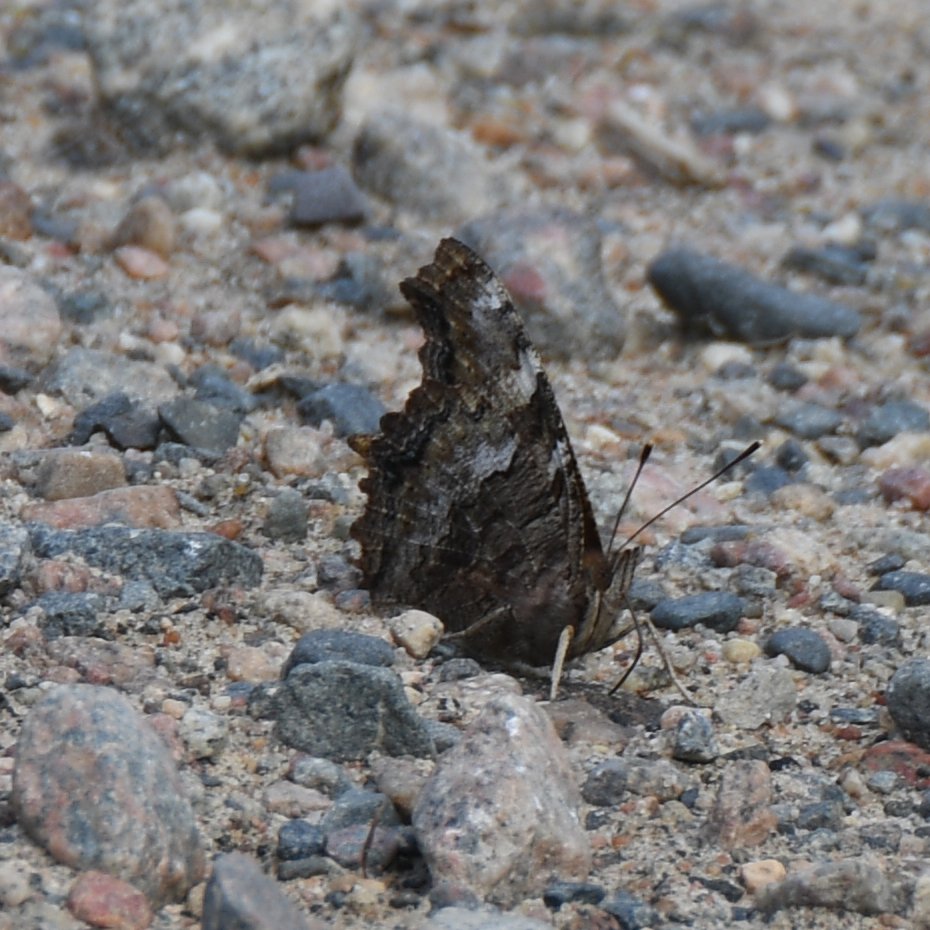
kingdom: Animalia
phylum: Arthropoda
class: Insecta
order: Lepidoptera
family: Nymphalidae
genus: Polygonia
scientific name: Polygonia vaualbum
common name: Compton Tortoiseshell
